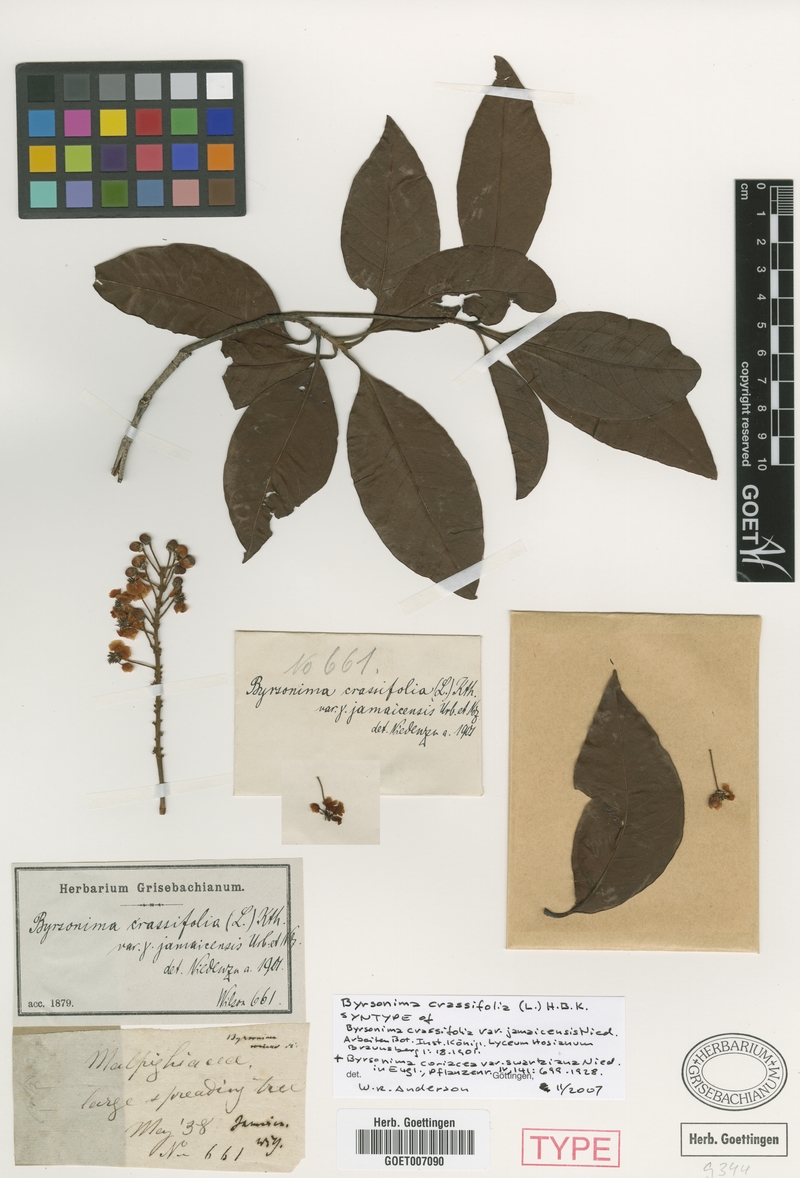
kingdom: Plantae
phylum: Tracheophyta
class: Magnoliopsida
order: Malpighiales
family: Malpighiaceae
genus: Byrsonima
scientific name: Byrsonima crassifolia
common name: Golden spoon
